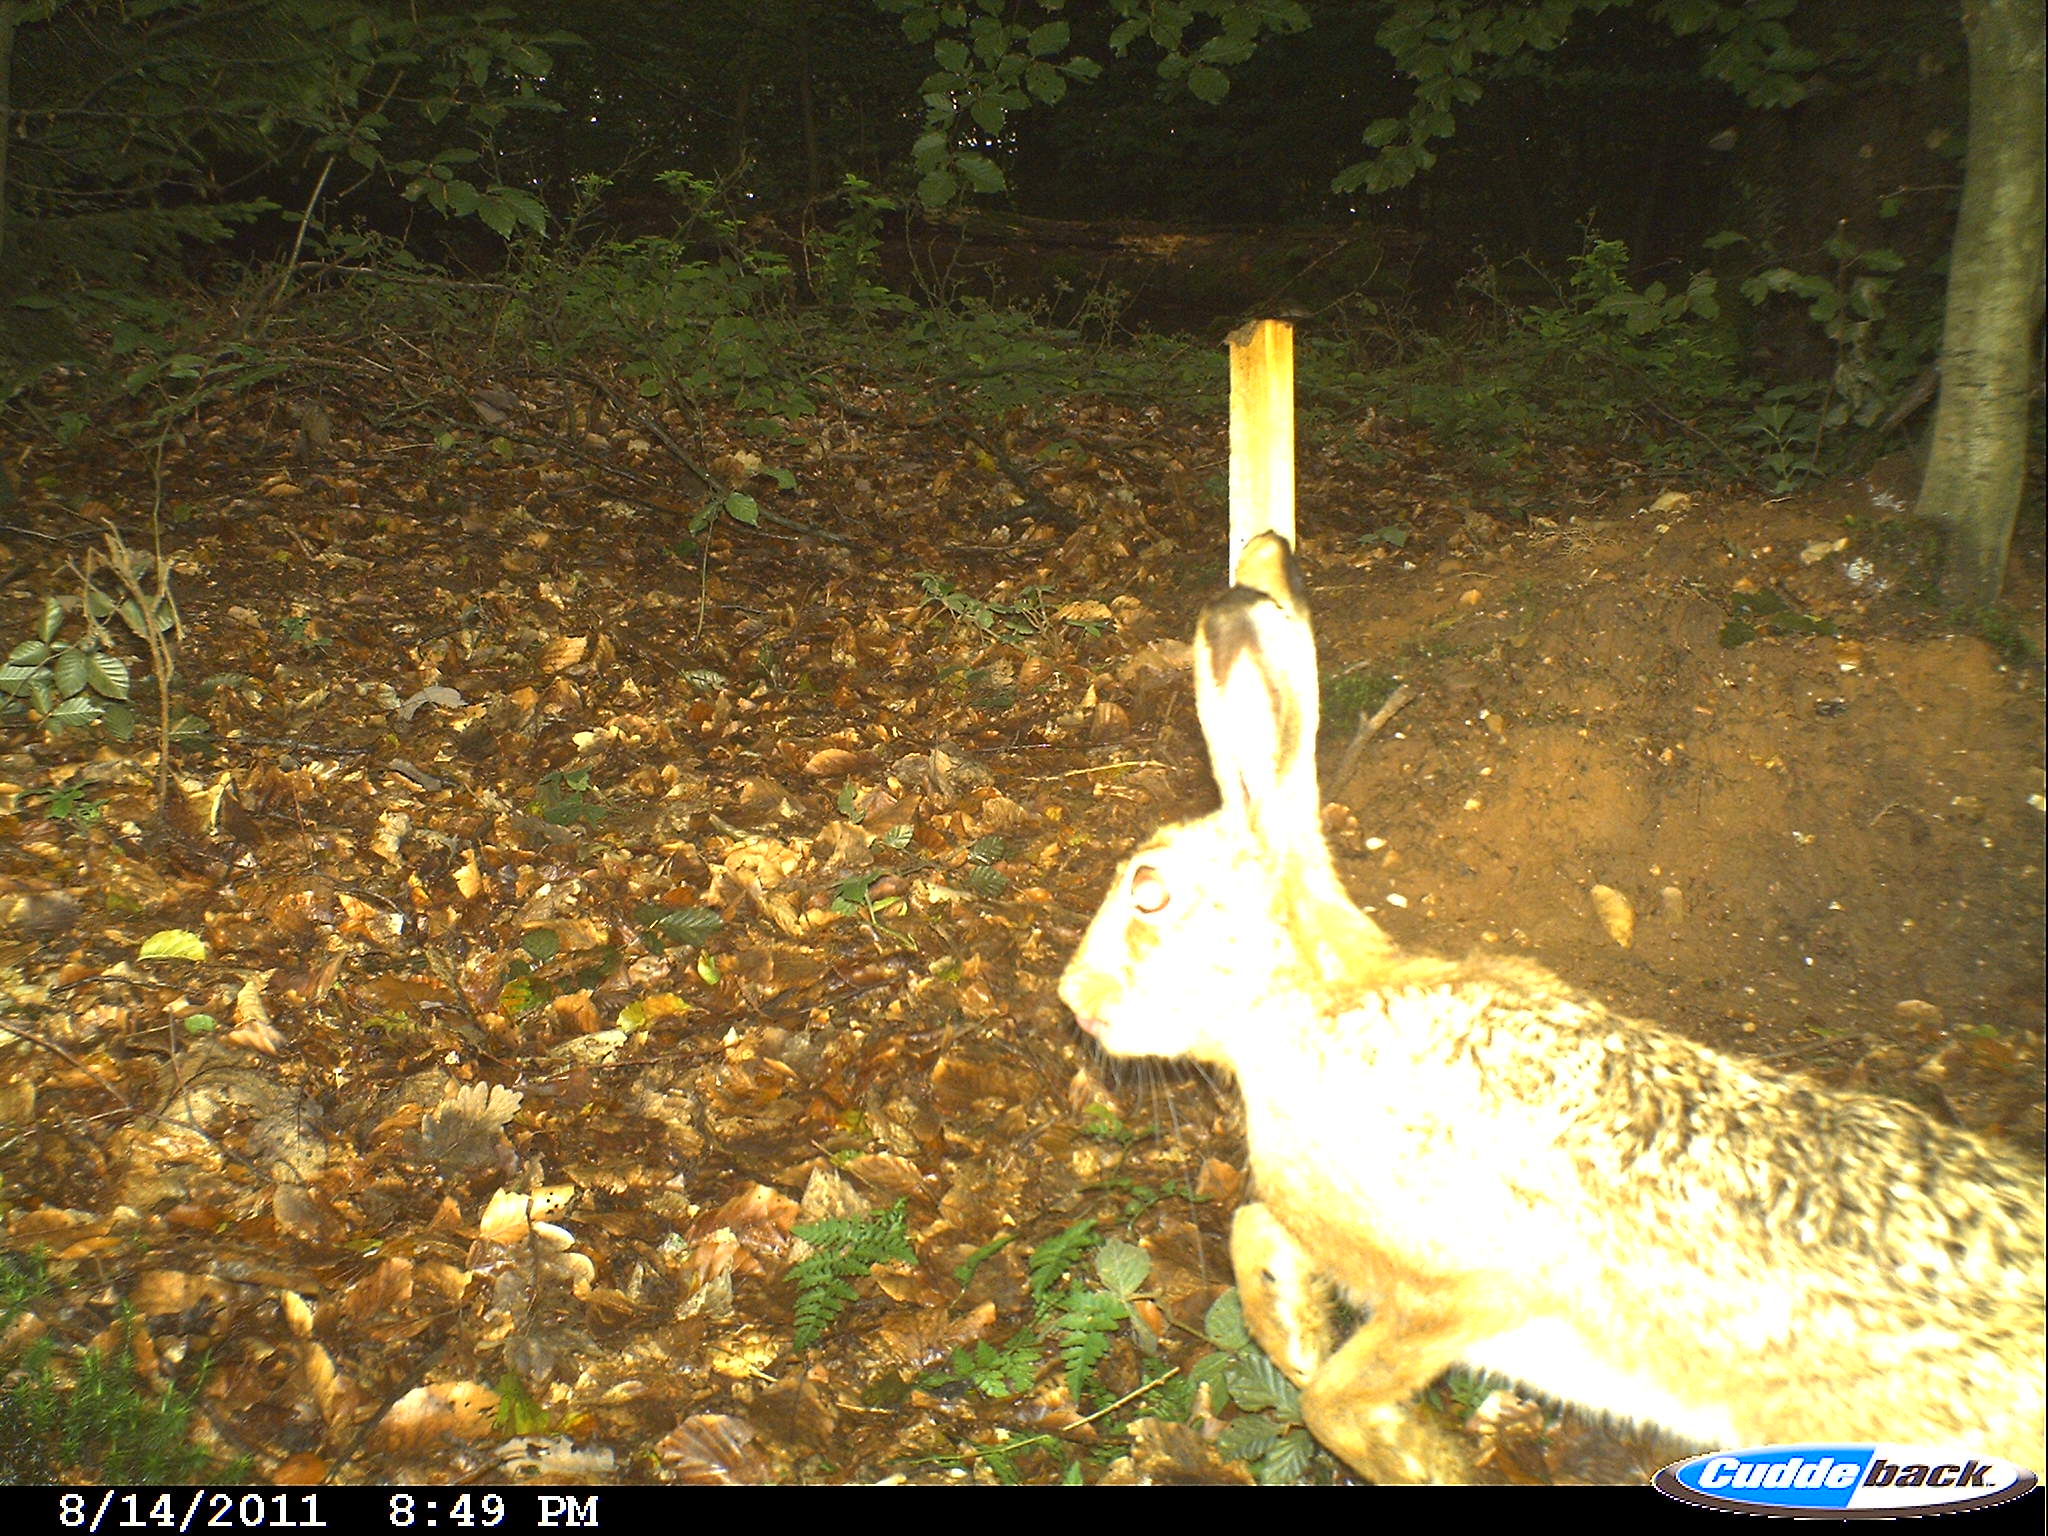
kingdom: Animalia
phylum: Chordata
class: Mammalia
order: Lagomorpha
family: Leporidae
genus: Lepus
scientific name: Lepus europaeus
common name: European hare
